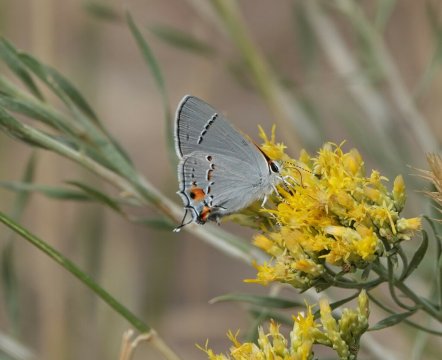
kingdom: Animalia
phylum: Arthropoda
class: Insecta
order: Lepidoptera
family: Lycaenidae
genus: Strymon
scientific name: Strymon melinus
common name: Gray Hairstreak
